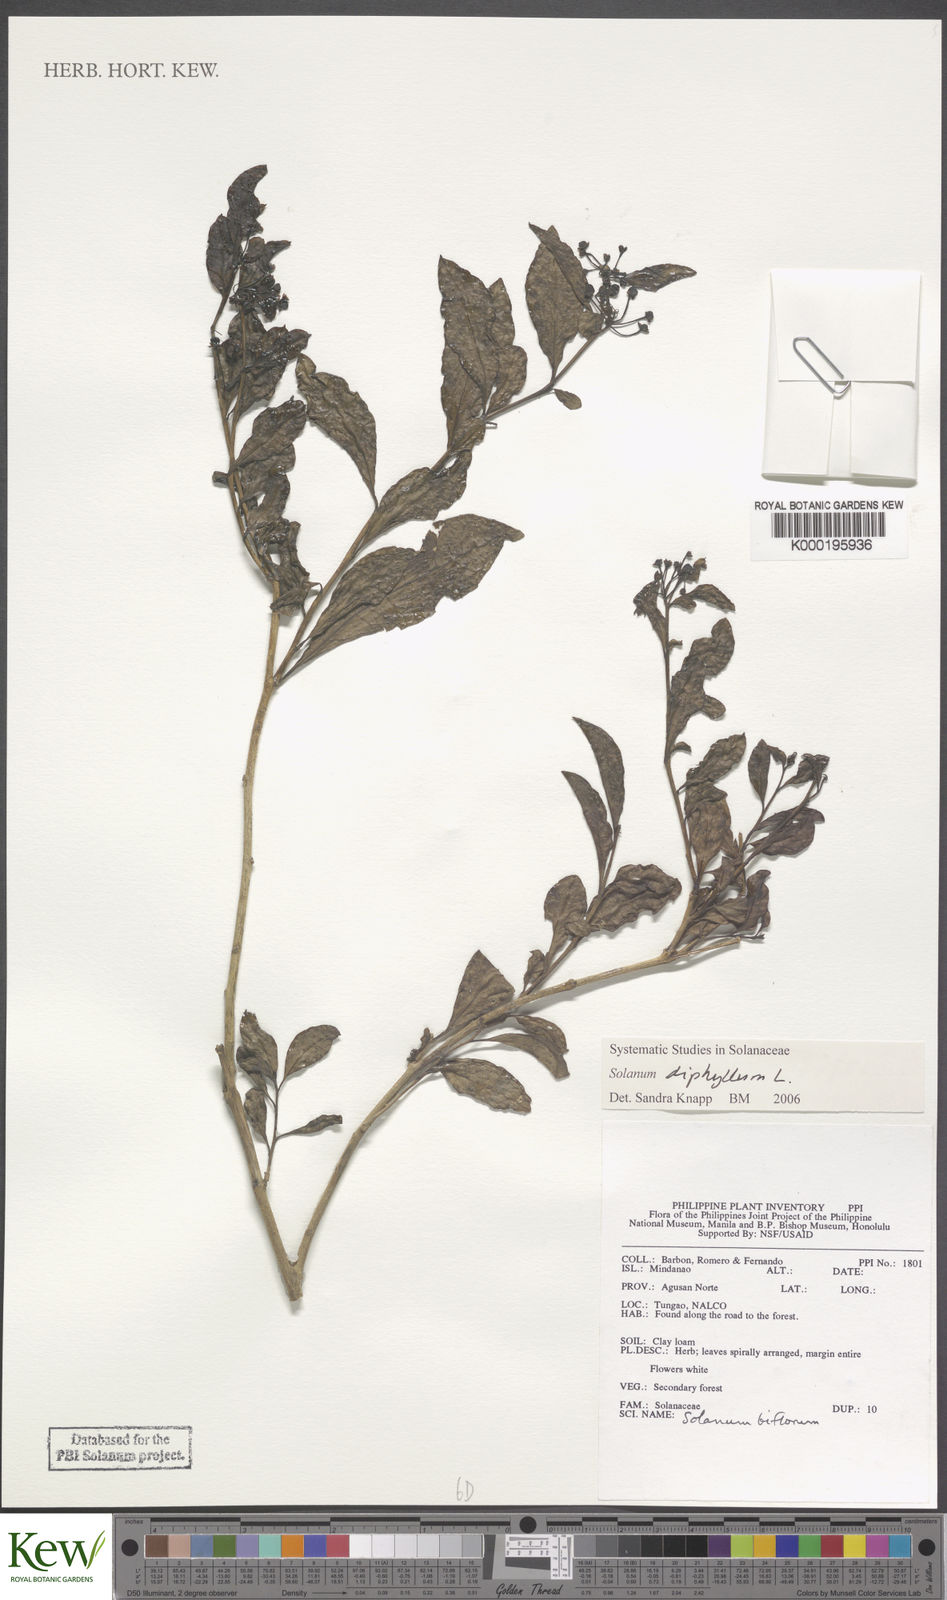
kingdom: Plantae
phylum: Tracheophyta
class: Magnoliopsida
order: Solanales
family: Solanaceae
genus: Solanum
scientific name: Solanum diphyllum
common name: Twoleaf nightshade
